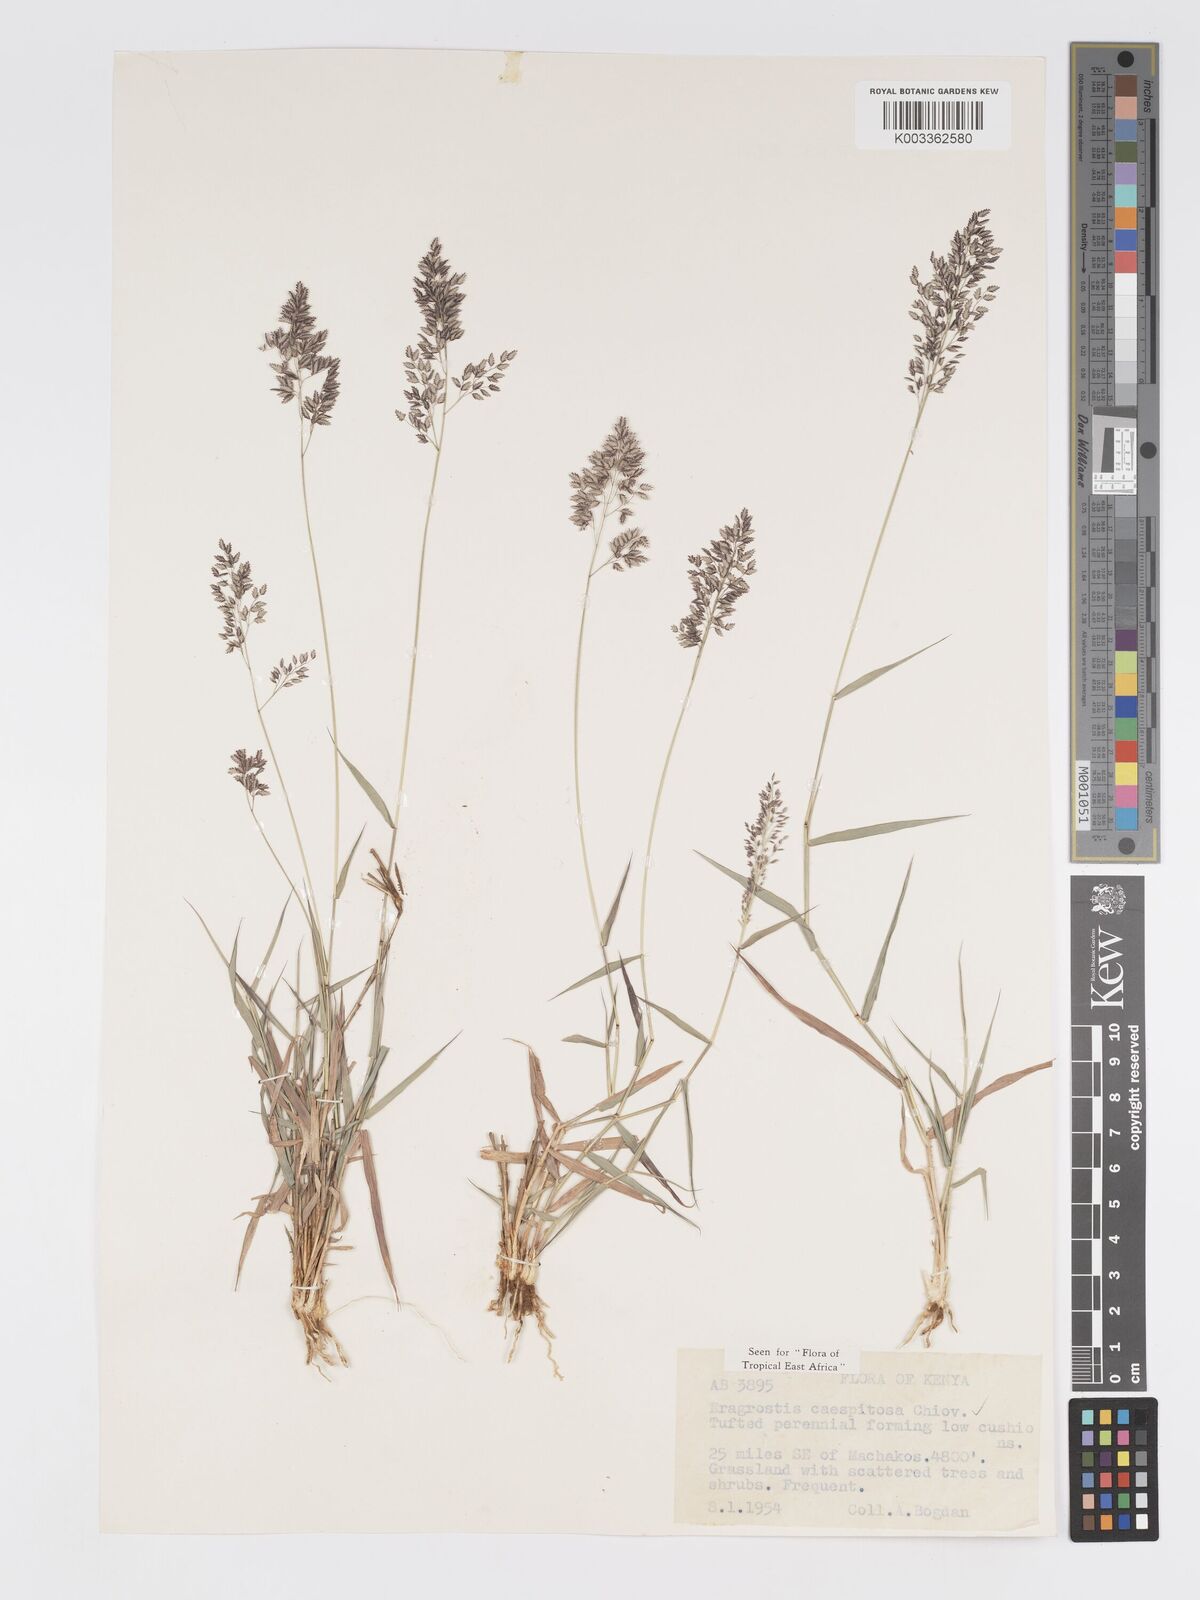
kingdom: Plantae
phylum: Tracheophyta
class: Liliopsida
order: Poales
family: Poaceae
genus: Eragrostis
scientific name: Eragrostis caespitosa
